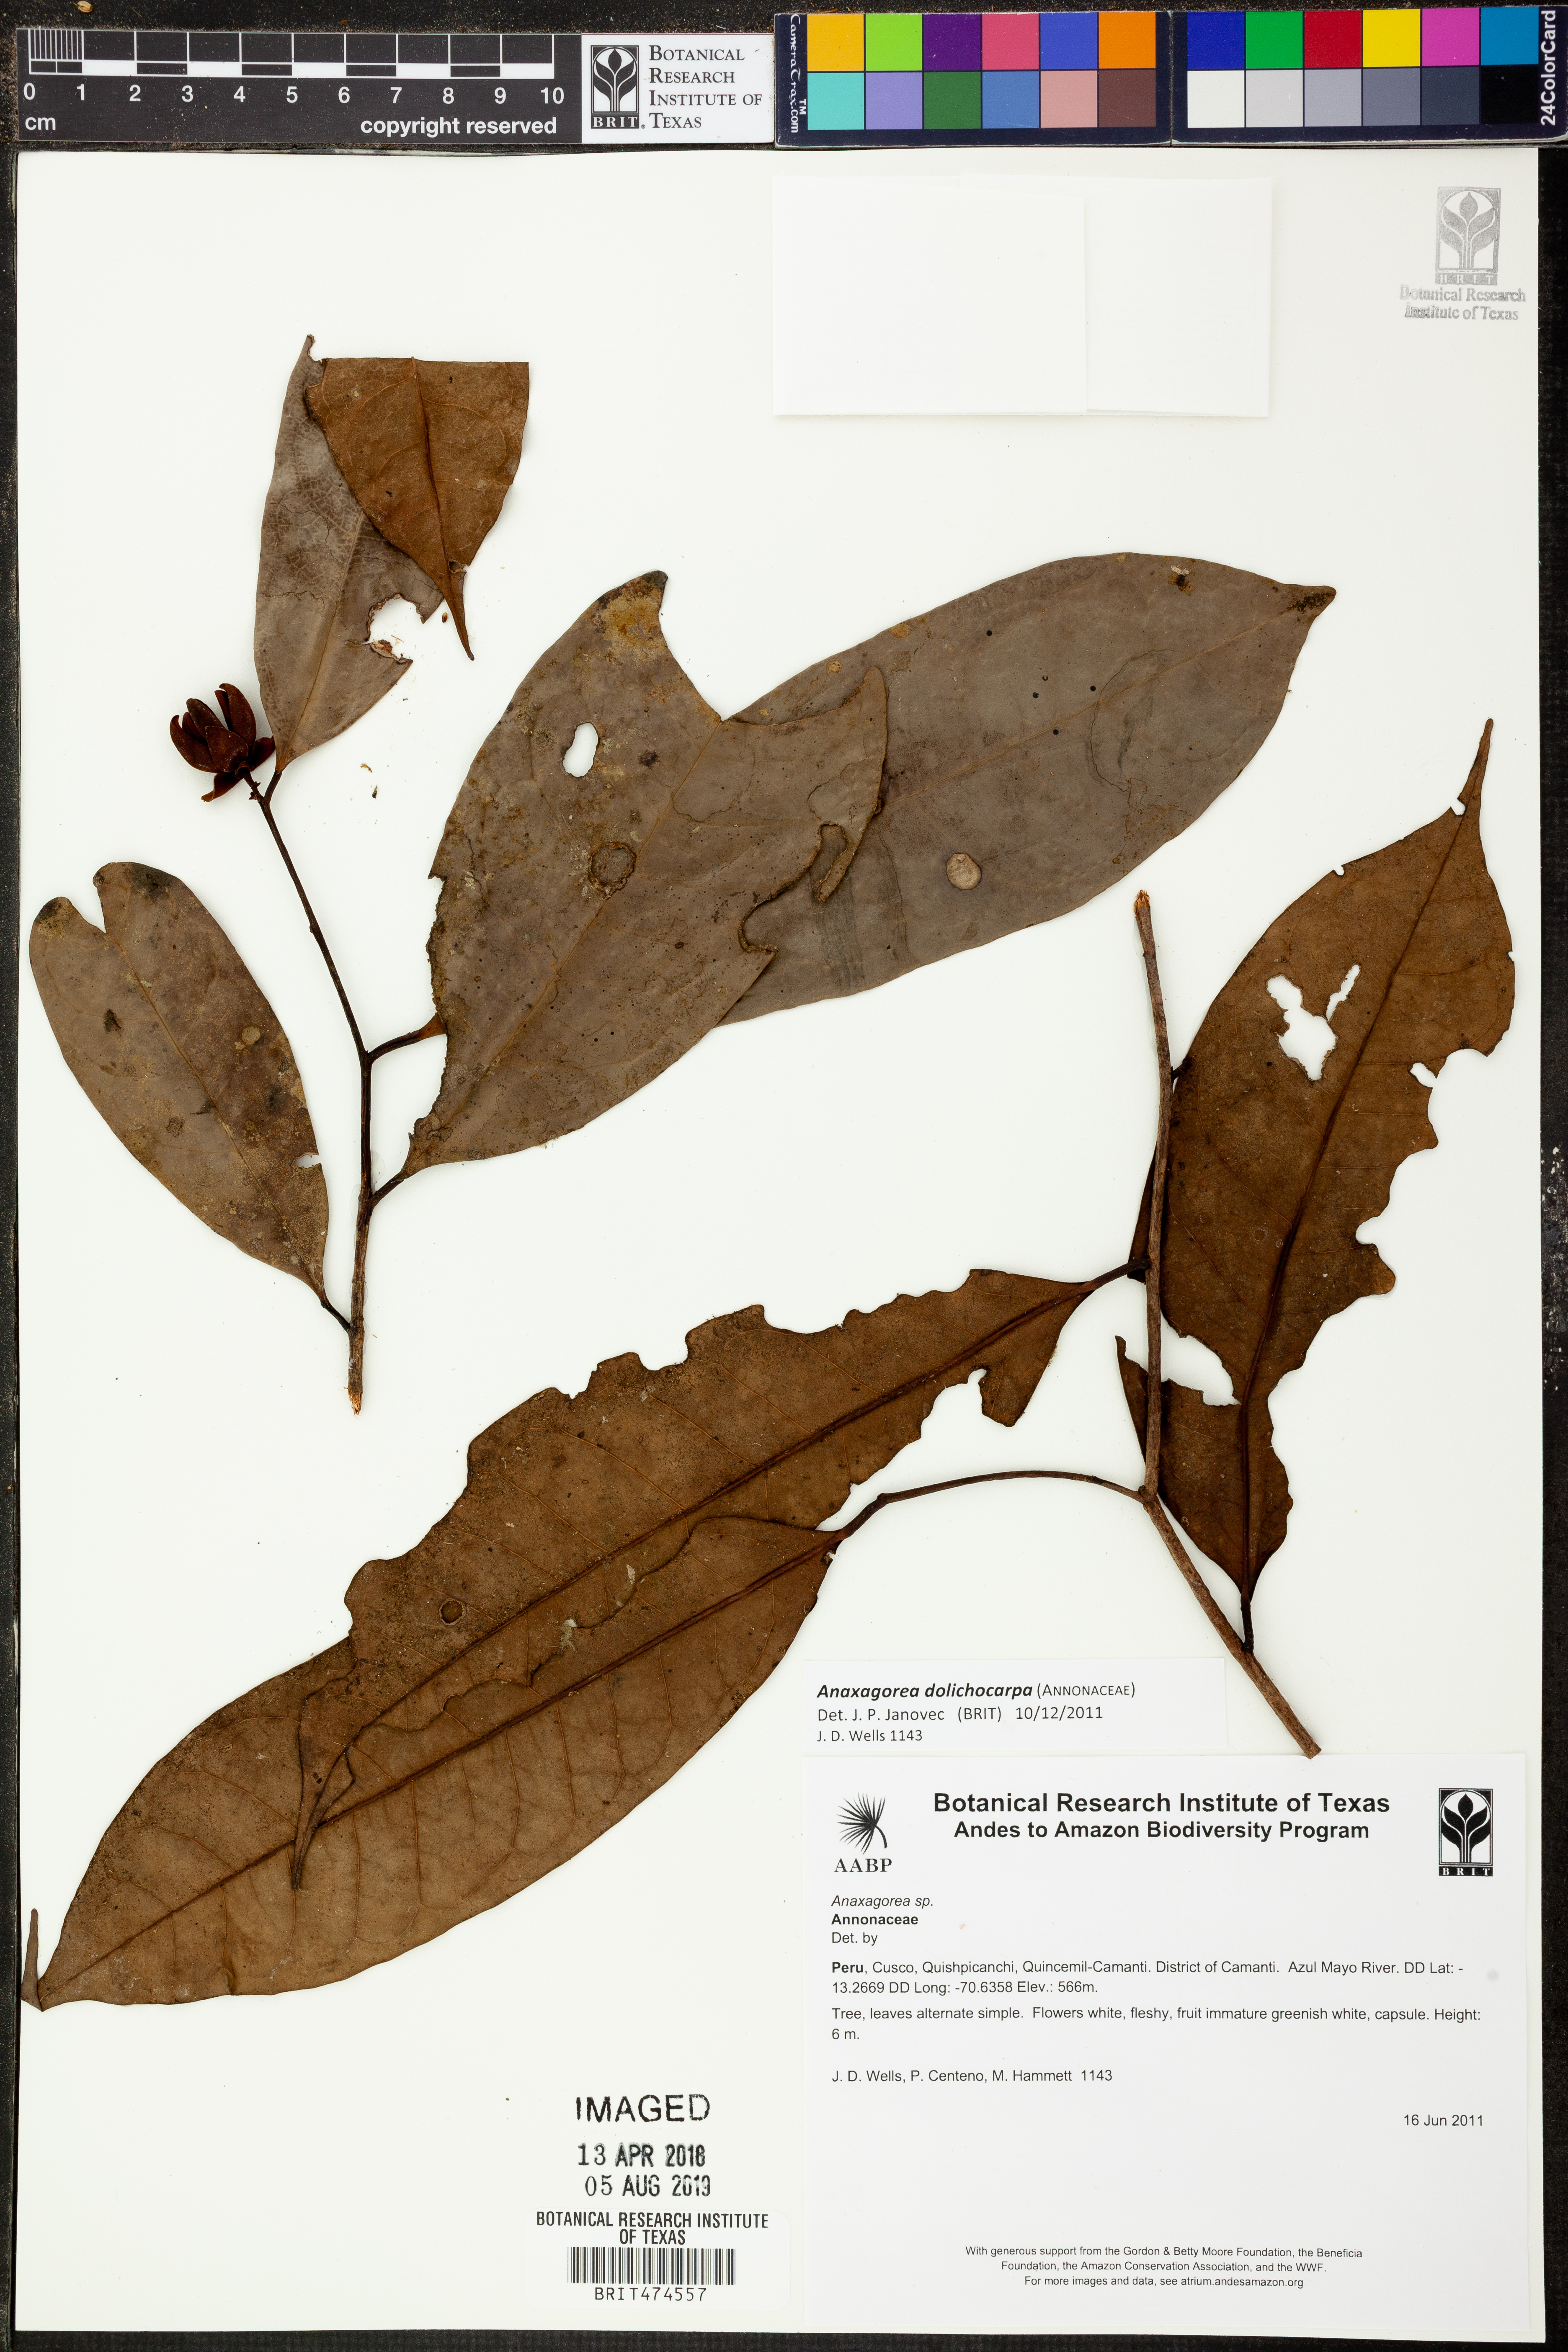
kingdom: Plantae
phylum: Tracheophyta
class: Magnoliopsida
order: Magnoliales
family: Annonaceae
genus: Anaxagorea
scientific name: Anaxagorea
